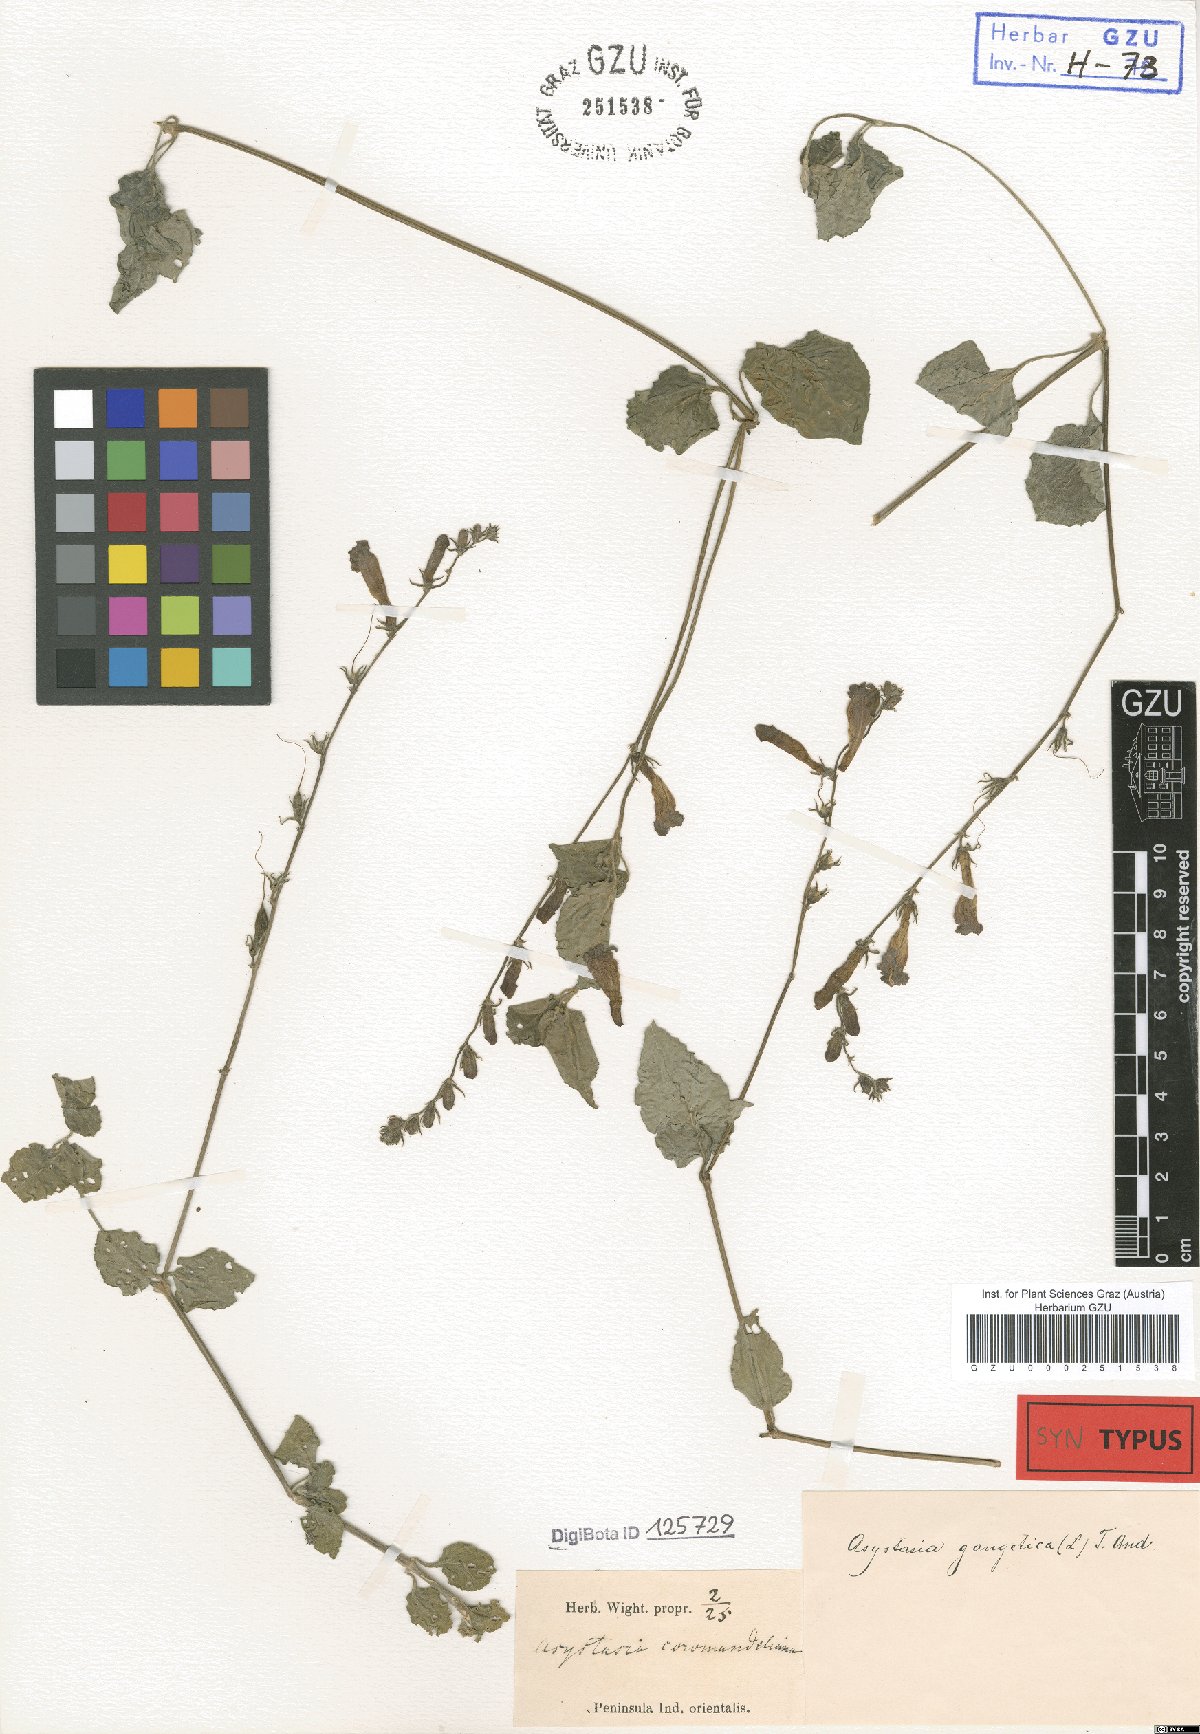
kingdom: Plantae
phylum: Tracheophyta
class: Magnoliopsida
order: Lamiales
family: Acanthaceae
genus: Asystasia
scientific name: Asystasia gangetica
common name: Chinese violet
